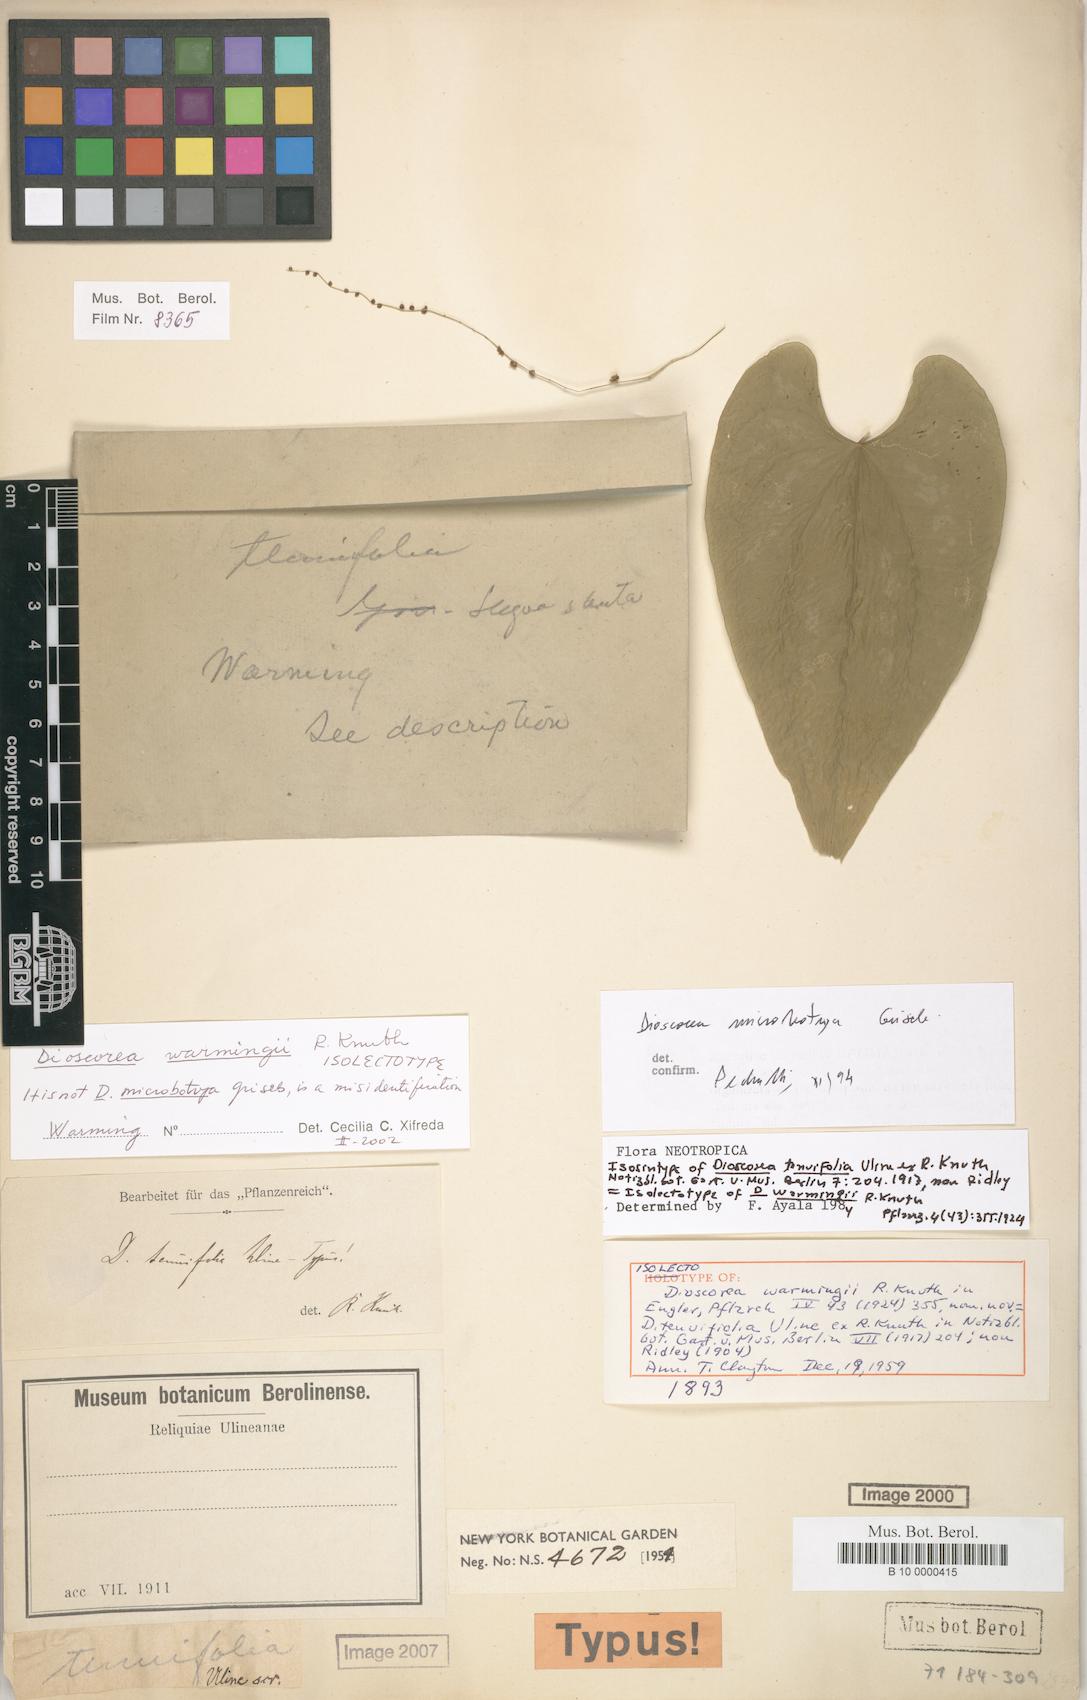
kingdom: Plantae
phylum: Tracheophyta
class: Liliopsida
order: Dioscoreales
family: Dioscoreaceae
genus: Dioscorea
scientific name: Dioscorea warmingii
